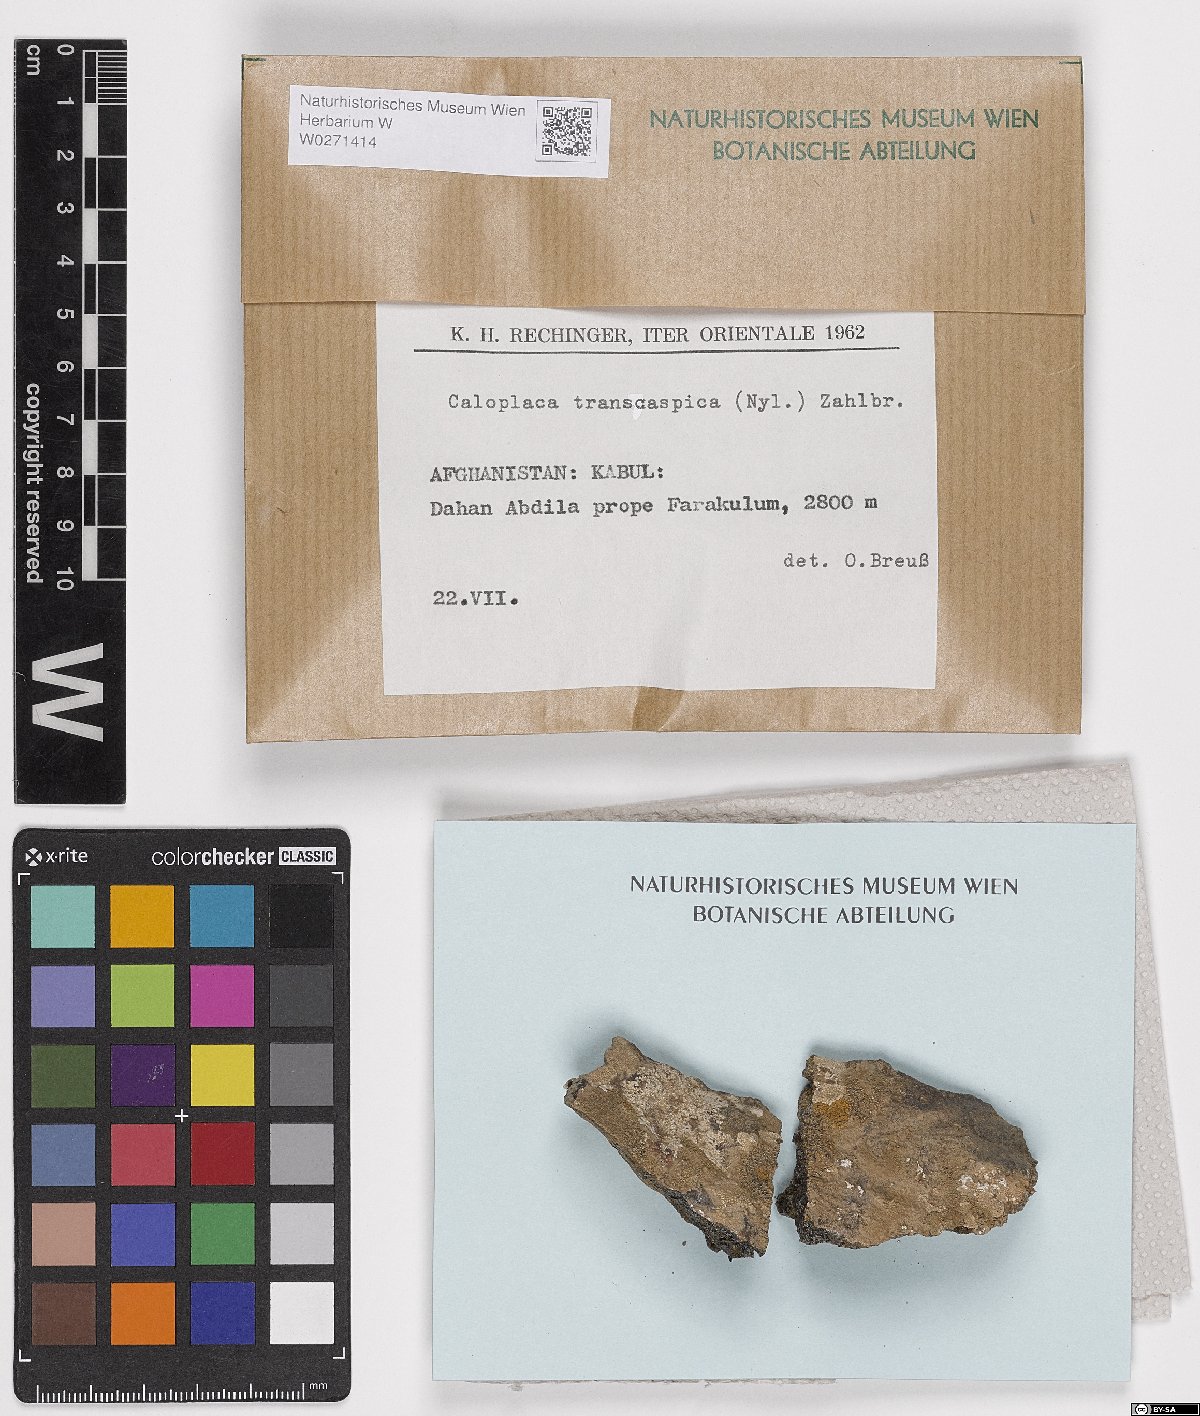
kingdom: Fungi
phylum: Ascomycota
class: Lecanoromycetes
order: Teloschistales
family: Teloschistaceae
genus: Pyrenodesmia
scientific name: Pyrenodesmia transcaspica
